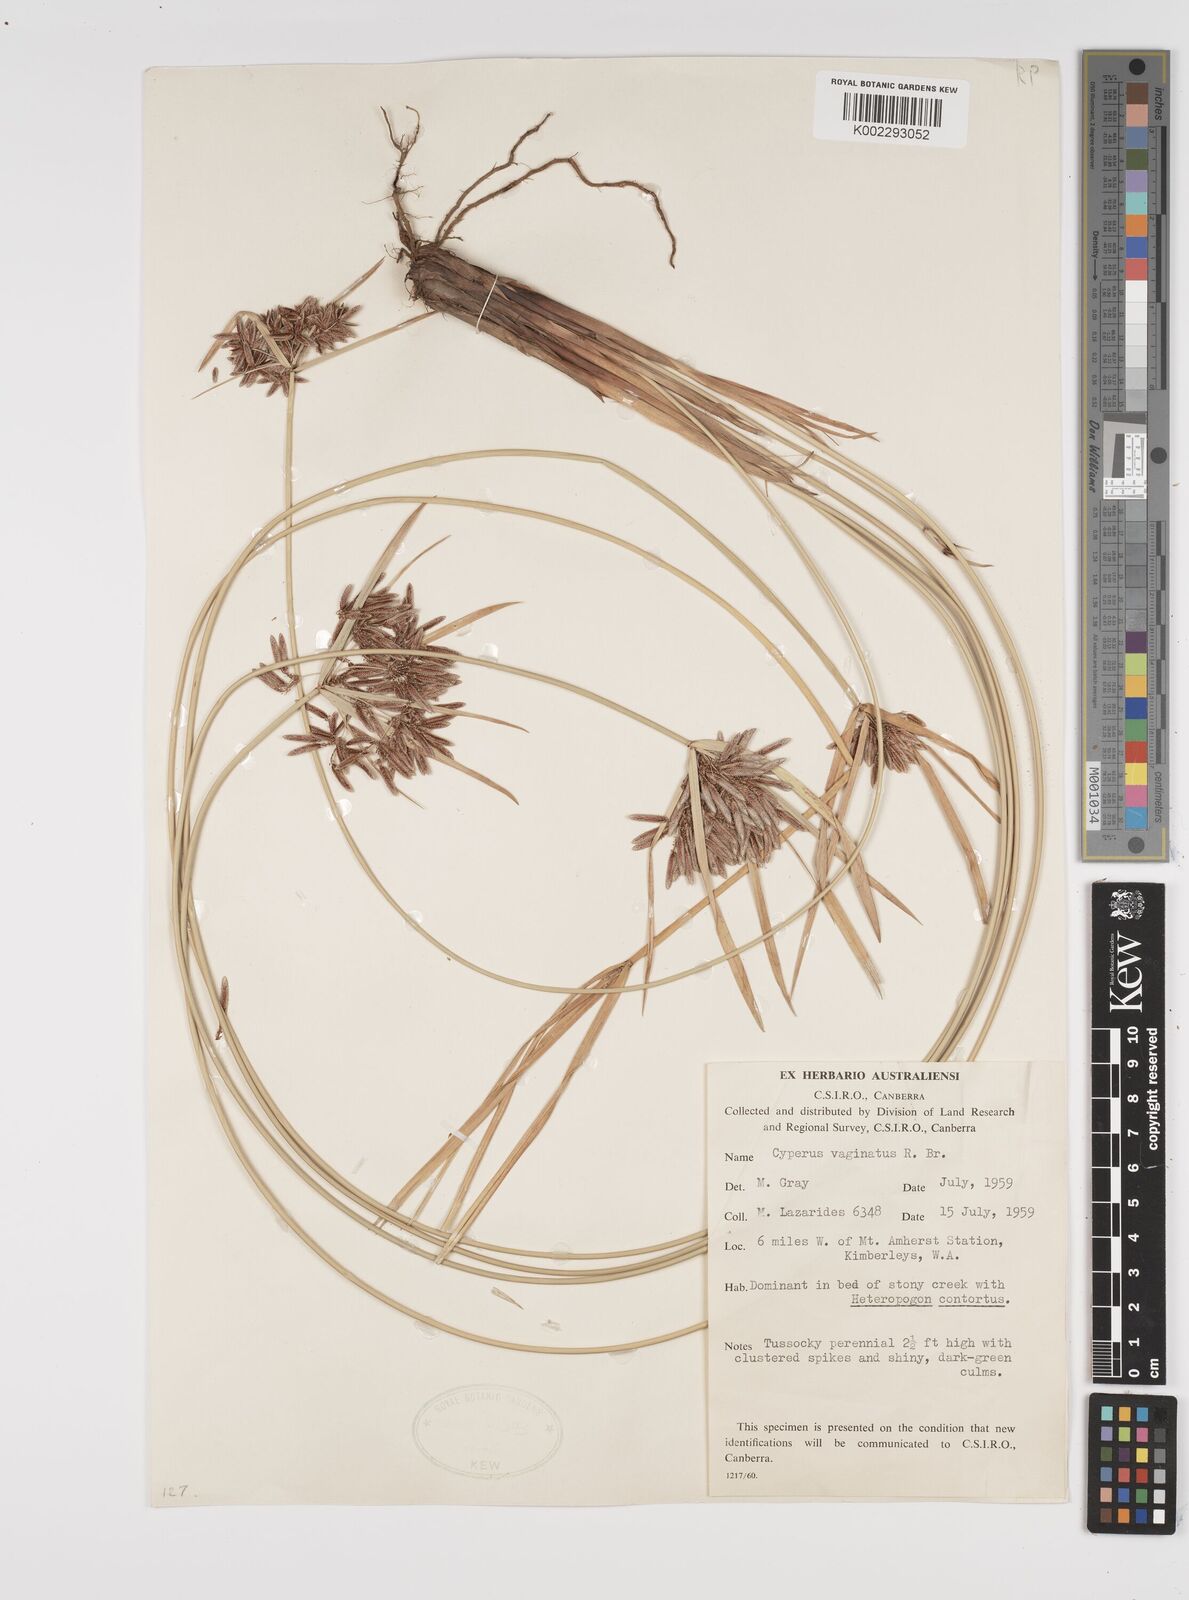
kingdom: Plantae
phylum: Tracheophyta
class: Liliopsida
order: Poales
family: Cyperaceae
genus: Cyperus
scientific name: Cyperus vaginatus
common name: Stiff-leaved flat-sedge
